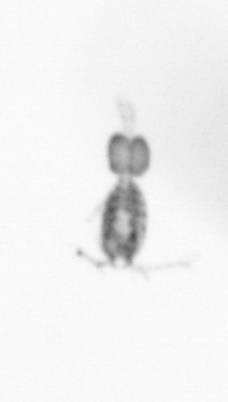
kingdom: Animalia
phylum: Arthropoda
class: Copepoda
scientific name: Copepoda
